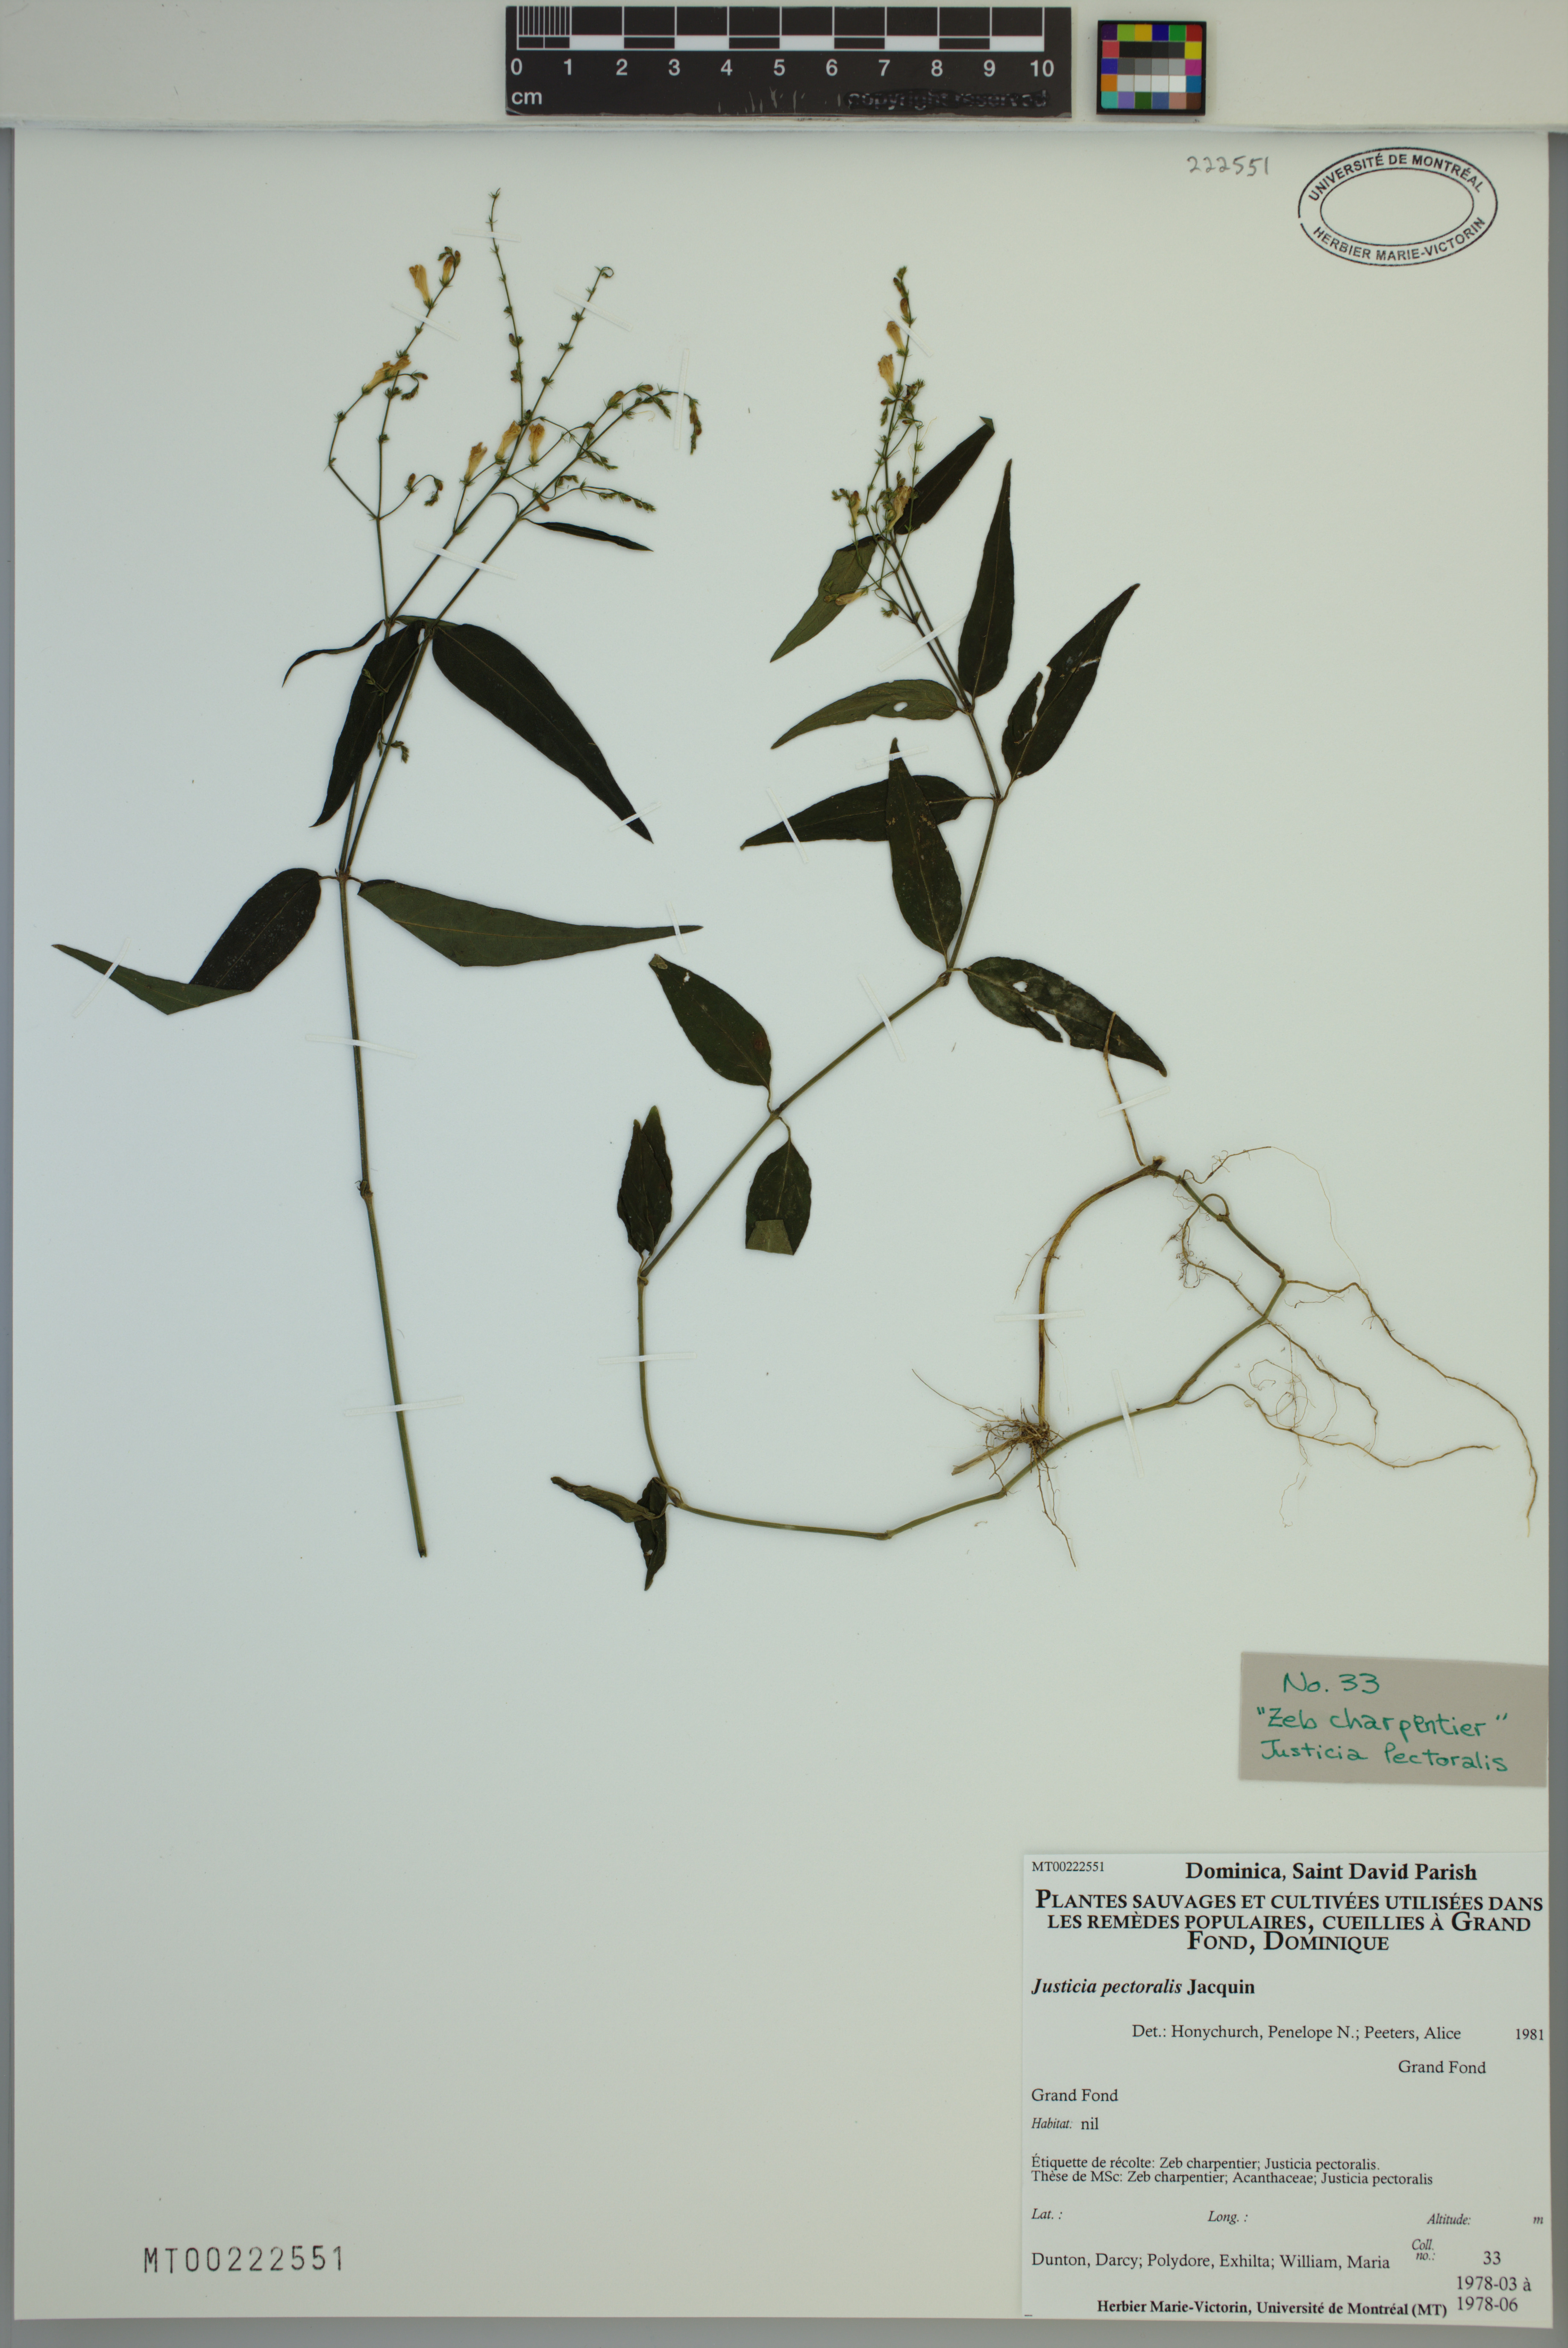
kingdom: Plantae
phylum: Tracheophyta
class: Magnoliopsida
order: Lamiales
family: Acanthaceae
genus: Dianthera
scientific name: Dianthera pectoralis
